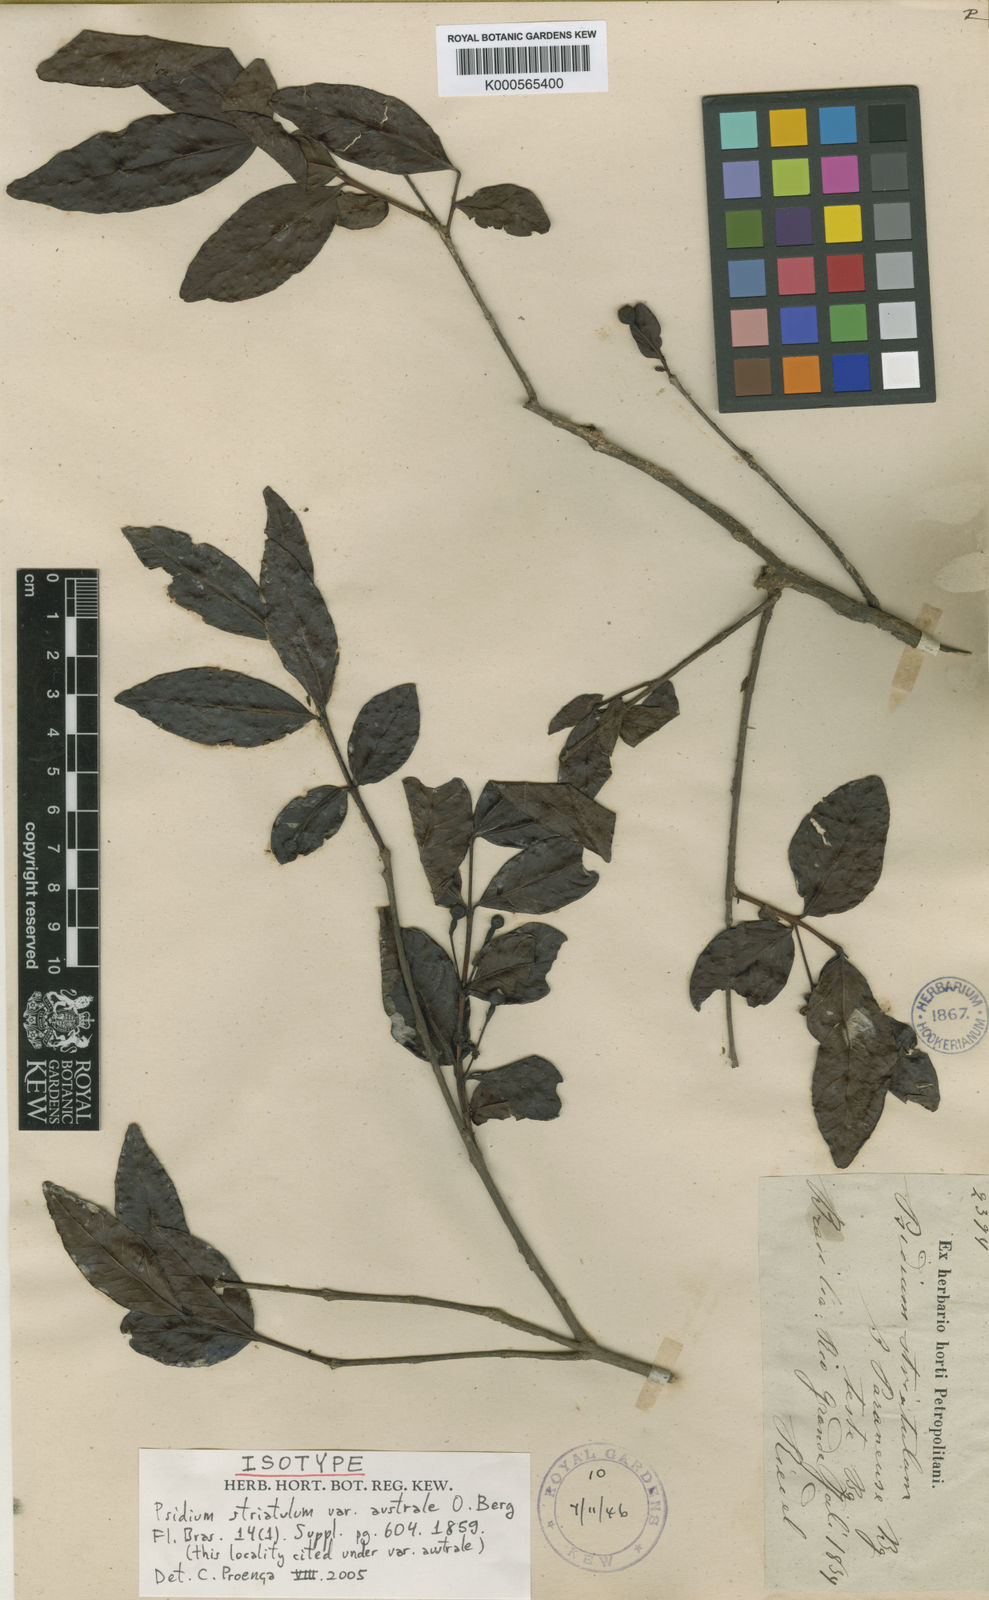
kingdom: Plantae
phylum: Tracheophyta
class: Magnoliopsida
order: Myrtales
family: Myrtaceae
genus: Psidium
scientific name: Psidium striatulum
